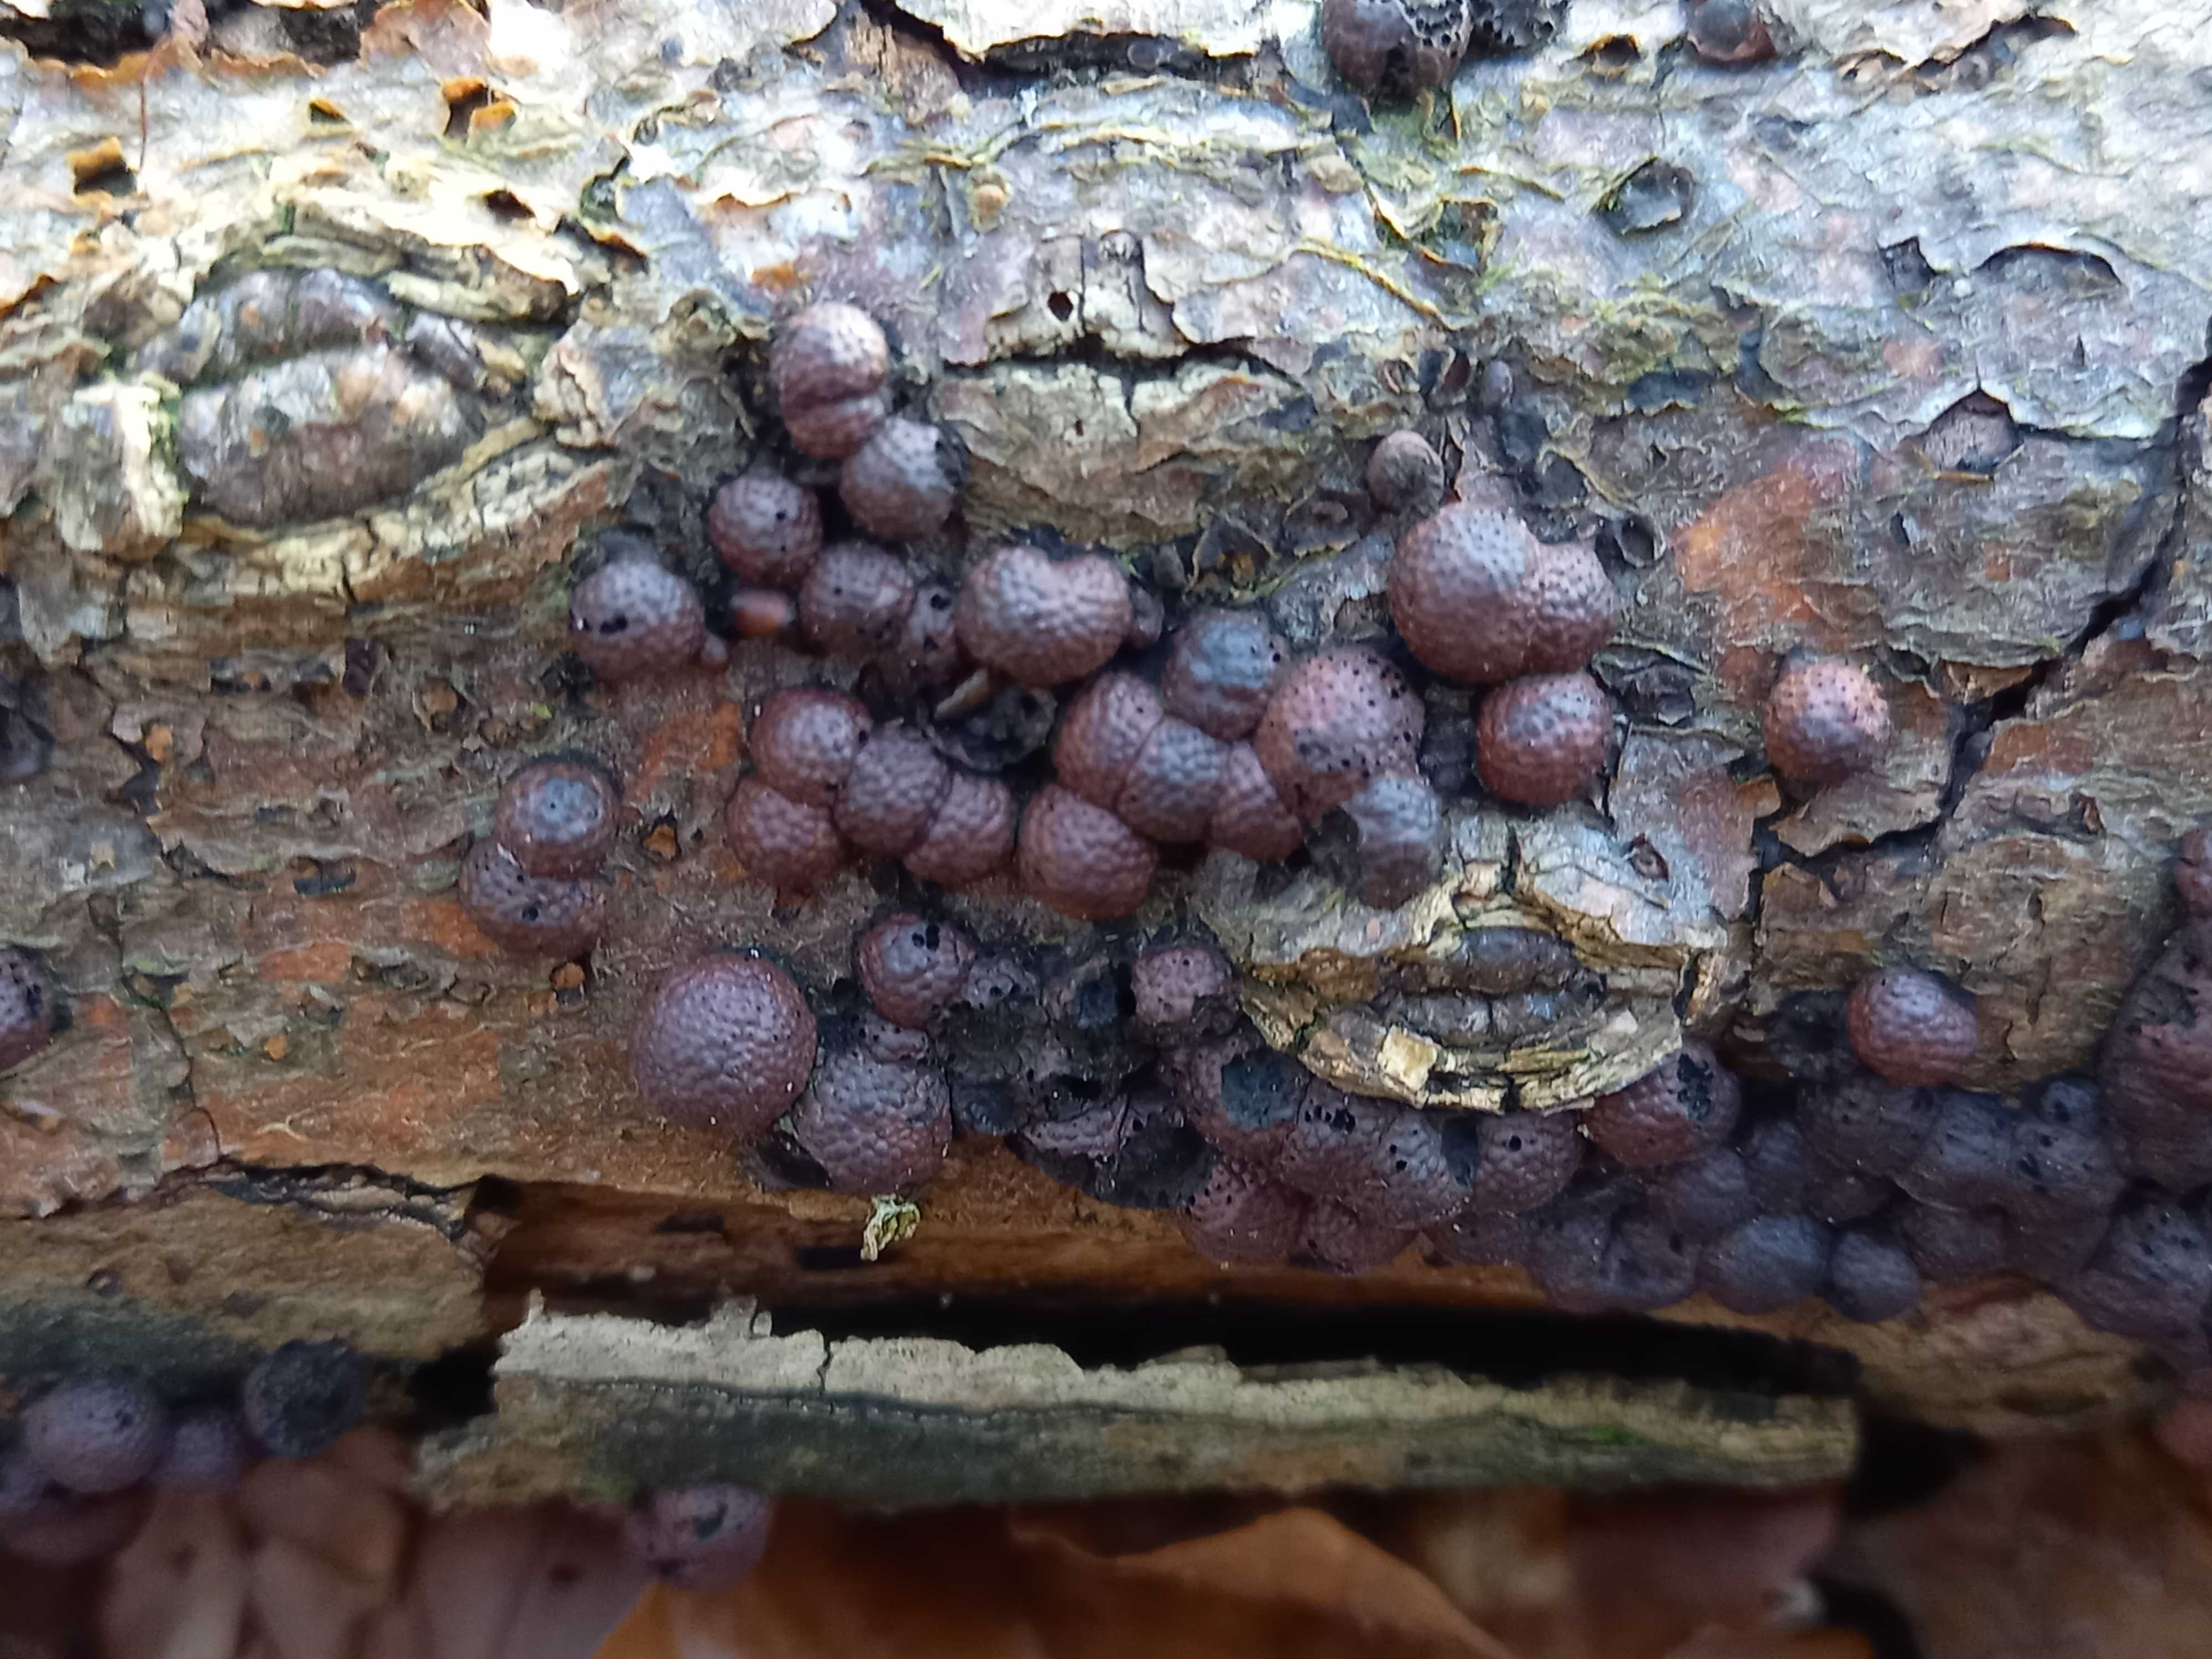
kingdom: Fungi
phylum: Ascomycota
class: Sordariomycetes
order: Xylariales
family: Hypoxylaceae
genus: Hypoxylon
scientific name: Hypoxylon fragiforme
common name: kuljordbær
